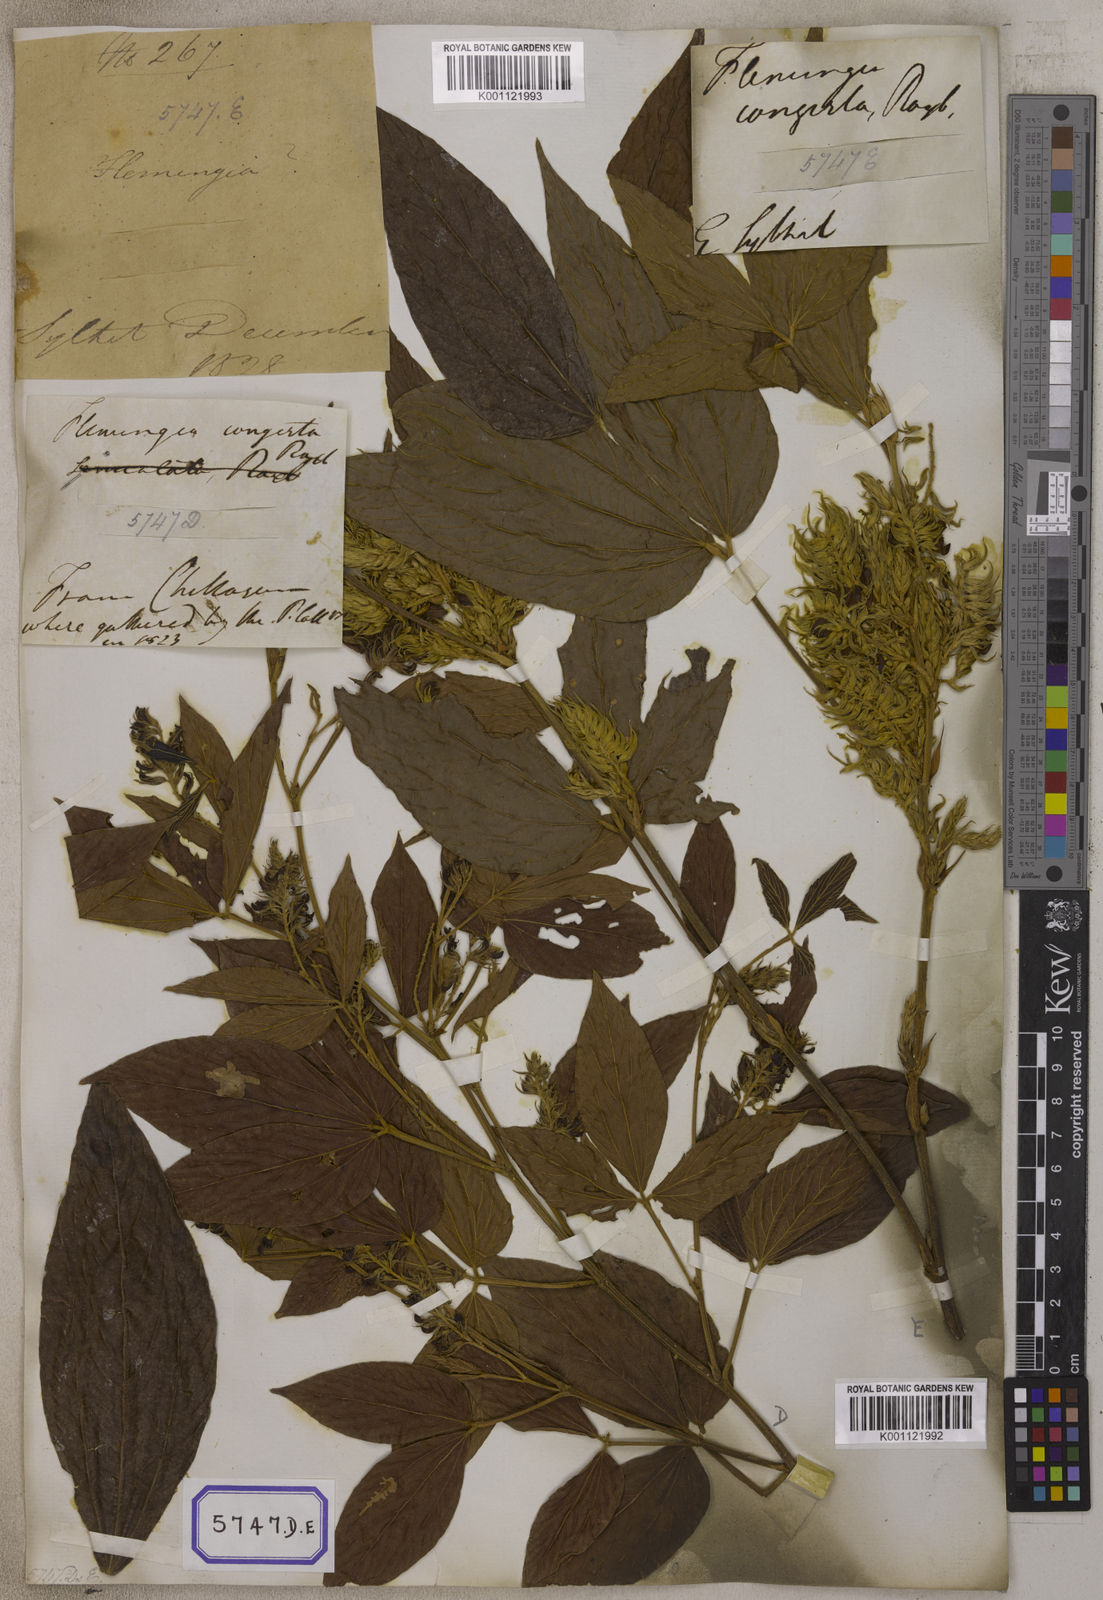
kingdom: Plantae
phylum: Tracheophyta
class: Magnoliopsida
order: Fabales
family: Fabaceae
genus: Flemingia
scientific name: Flemingia
